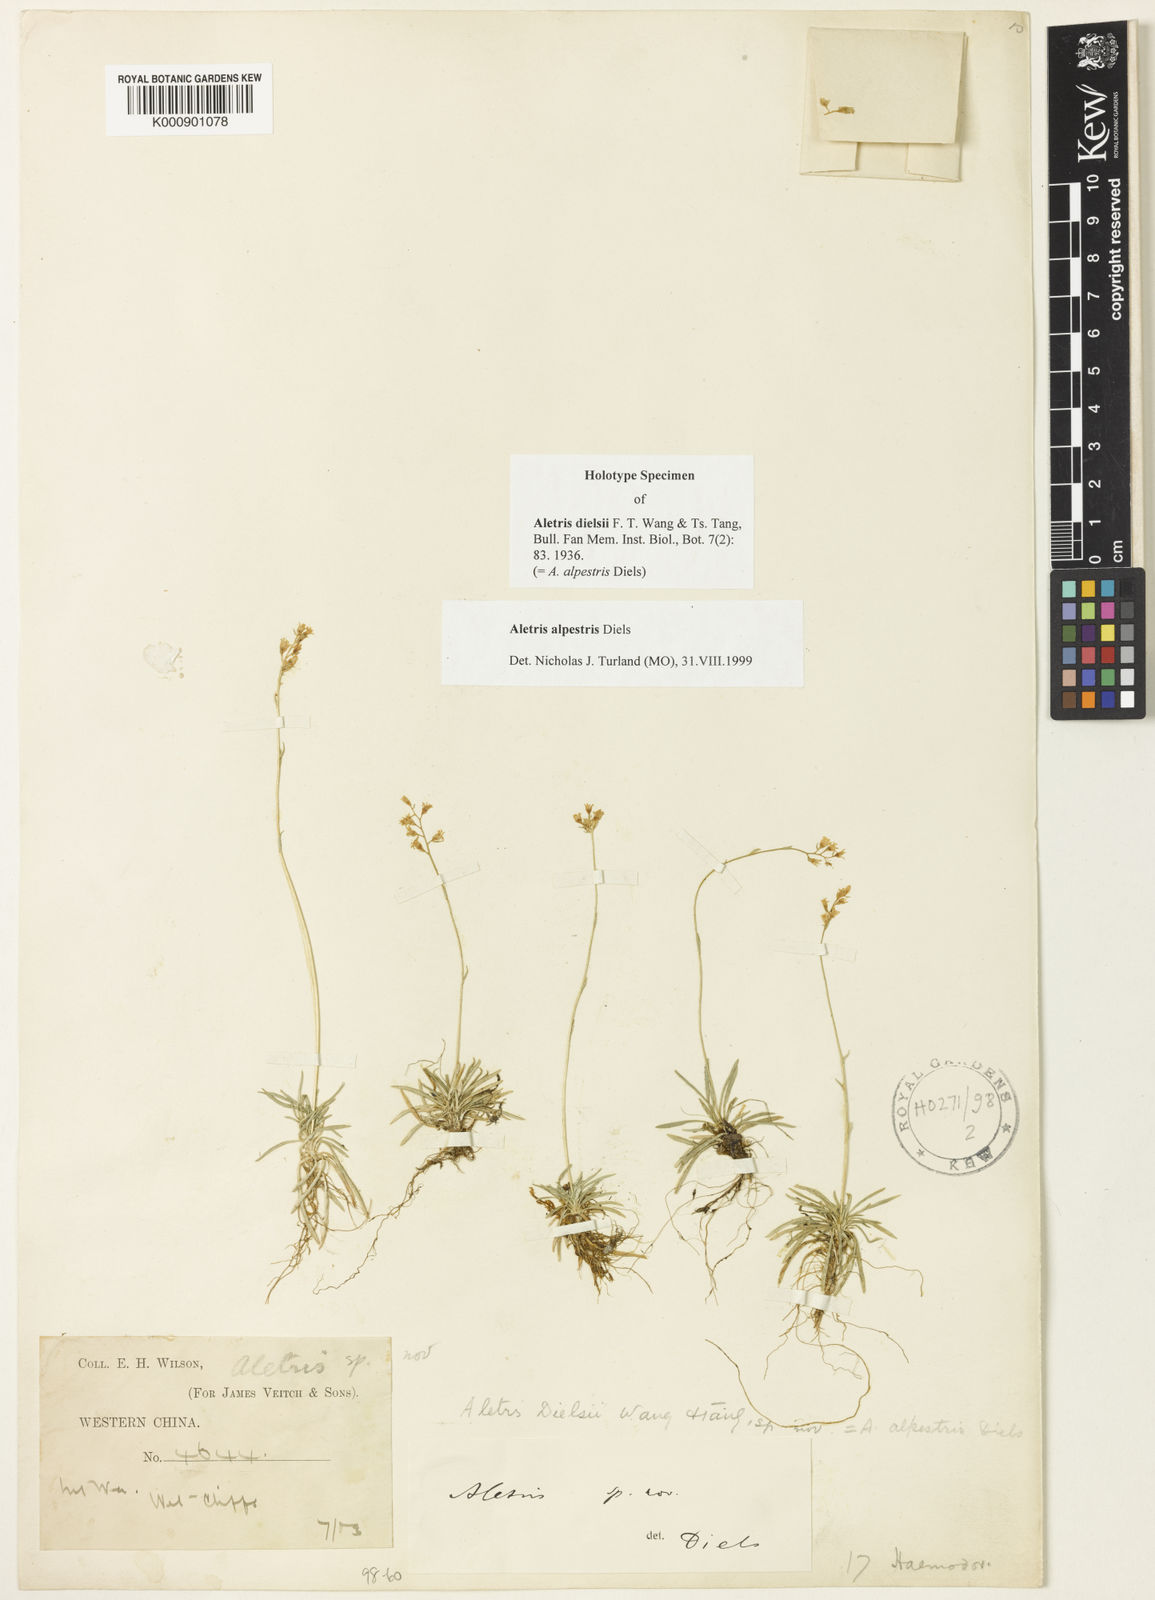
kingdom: Plantae
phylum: Tracheophyta
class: Liliopsida
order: Dioscoreales
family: Nartheciaceae
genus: Aletris
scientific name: Aletris alpestris
